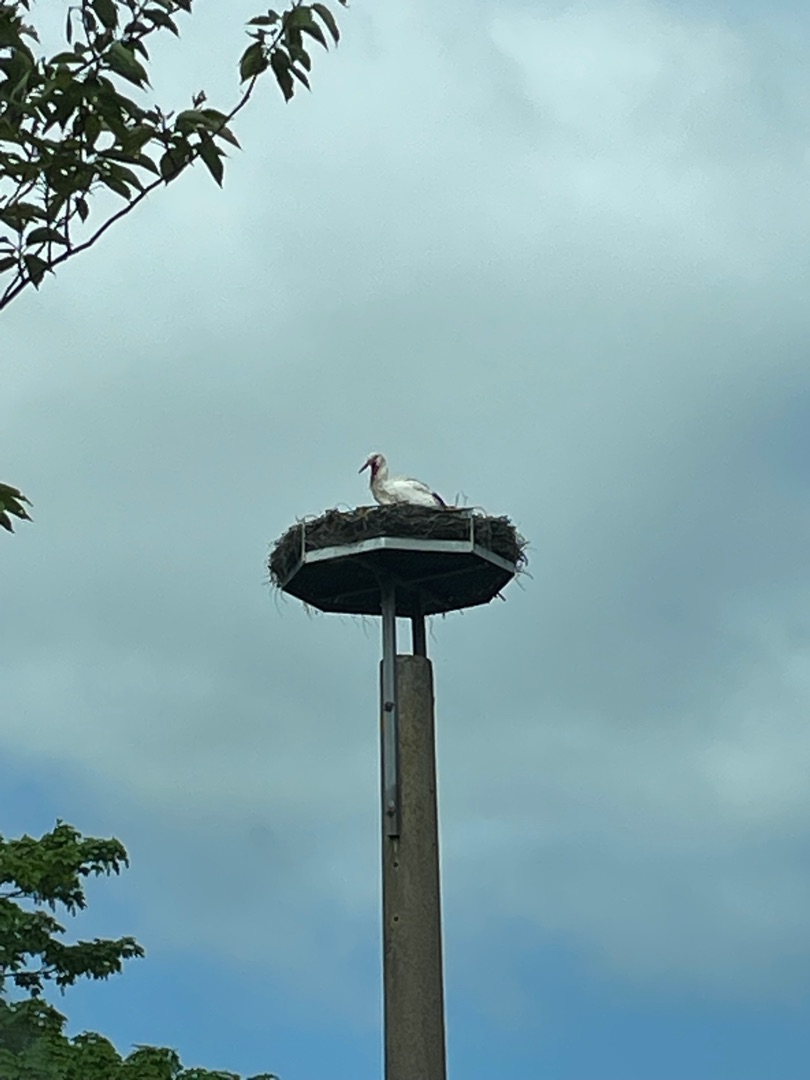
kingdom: Animalia
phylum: Chordata
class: Aves
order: Ciconiiformes
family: Ciconiidae
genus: Ciconia
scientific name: Ciconia ciconia
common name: Hvid stork
